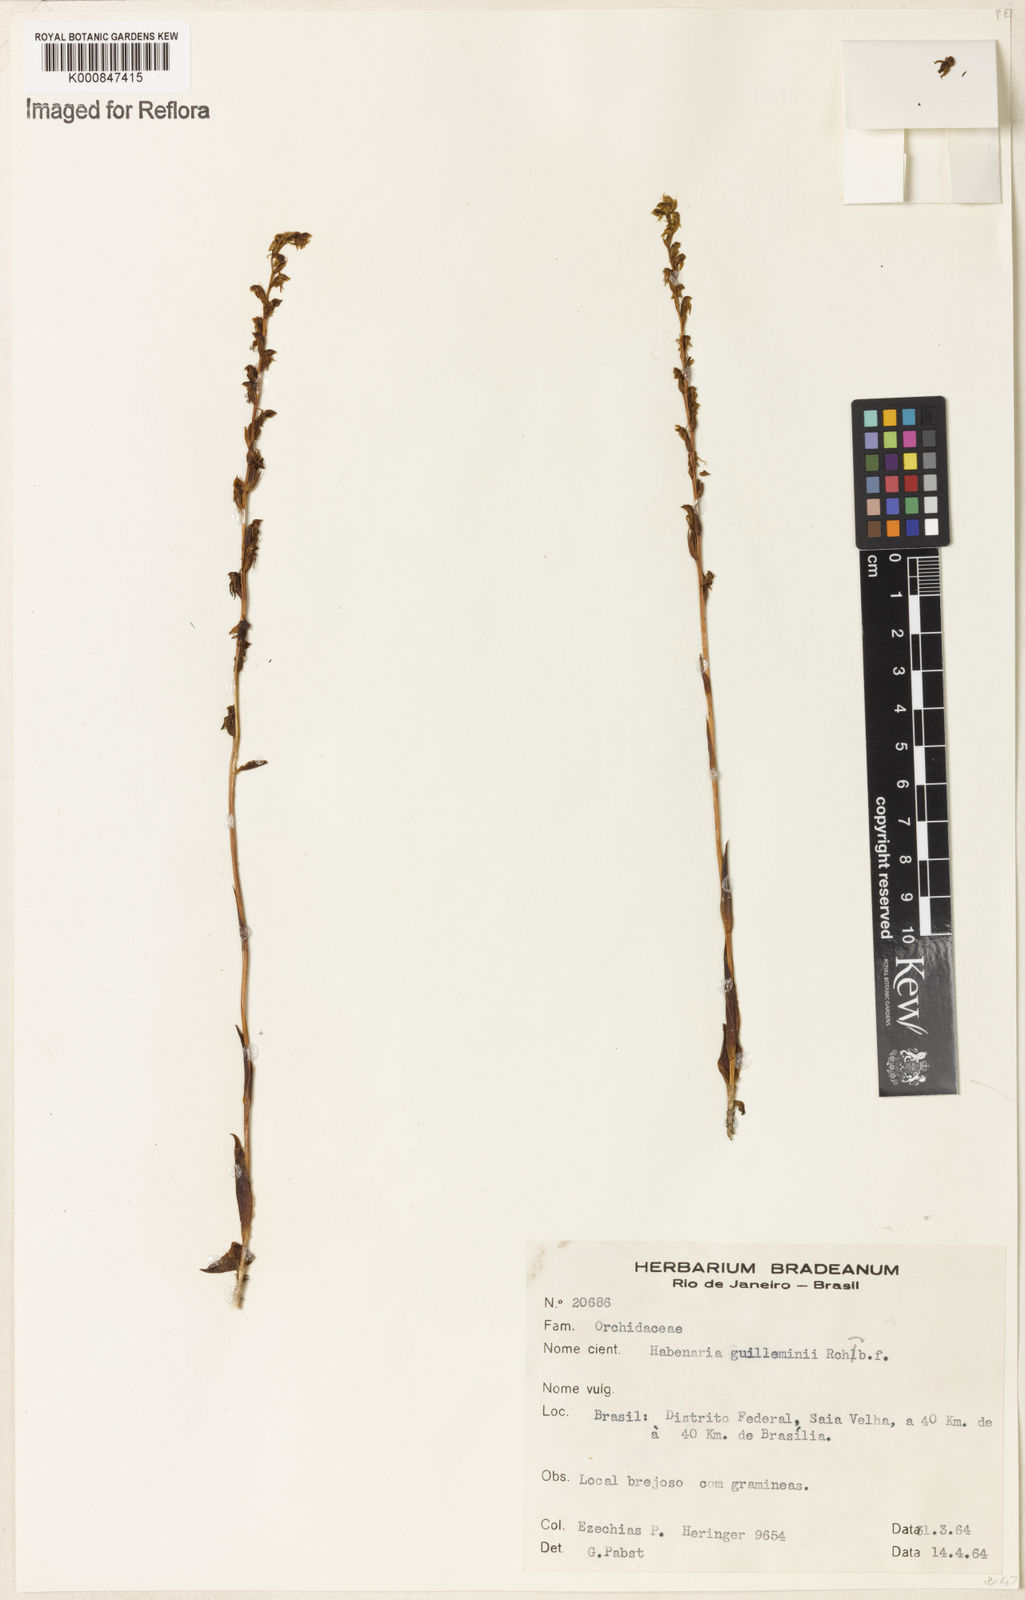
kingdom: Plantae
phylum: Tracheophyta
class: Liliopsida
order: Asparagales
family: Orchidaceae
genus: Habenaria
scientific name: Habenaria guilleminii
